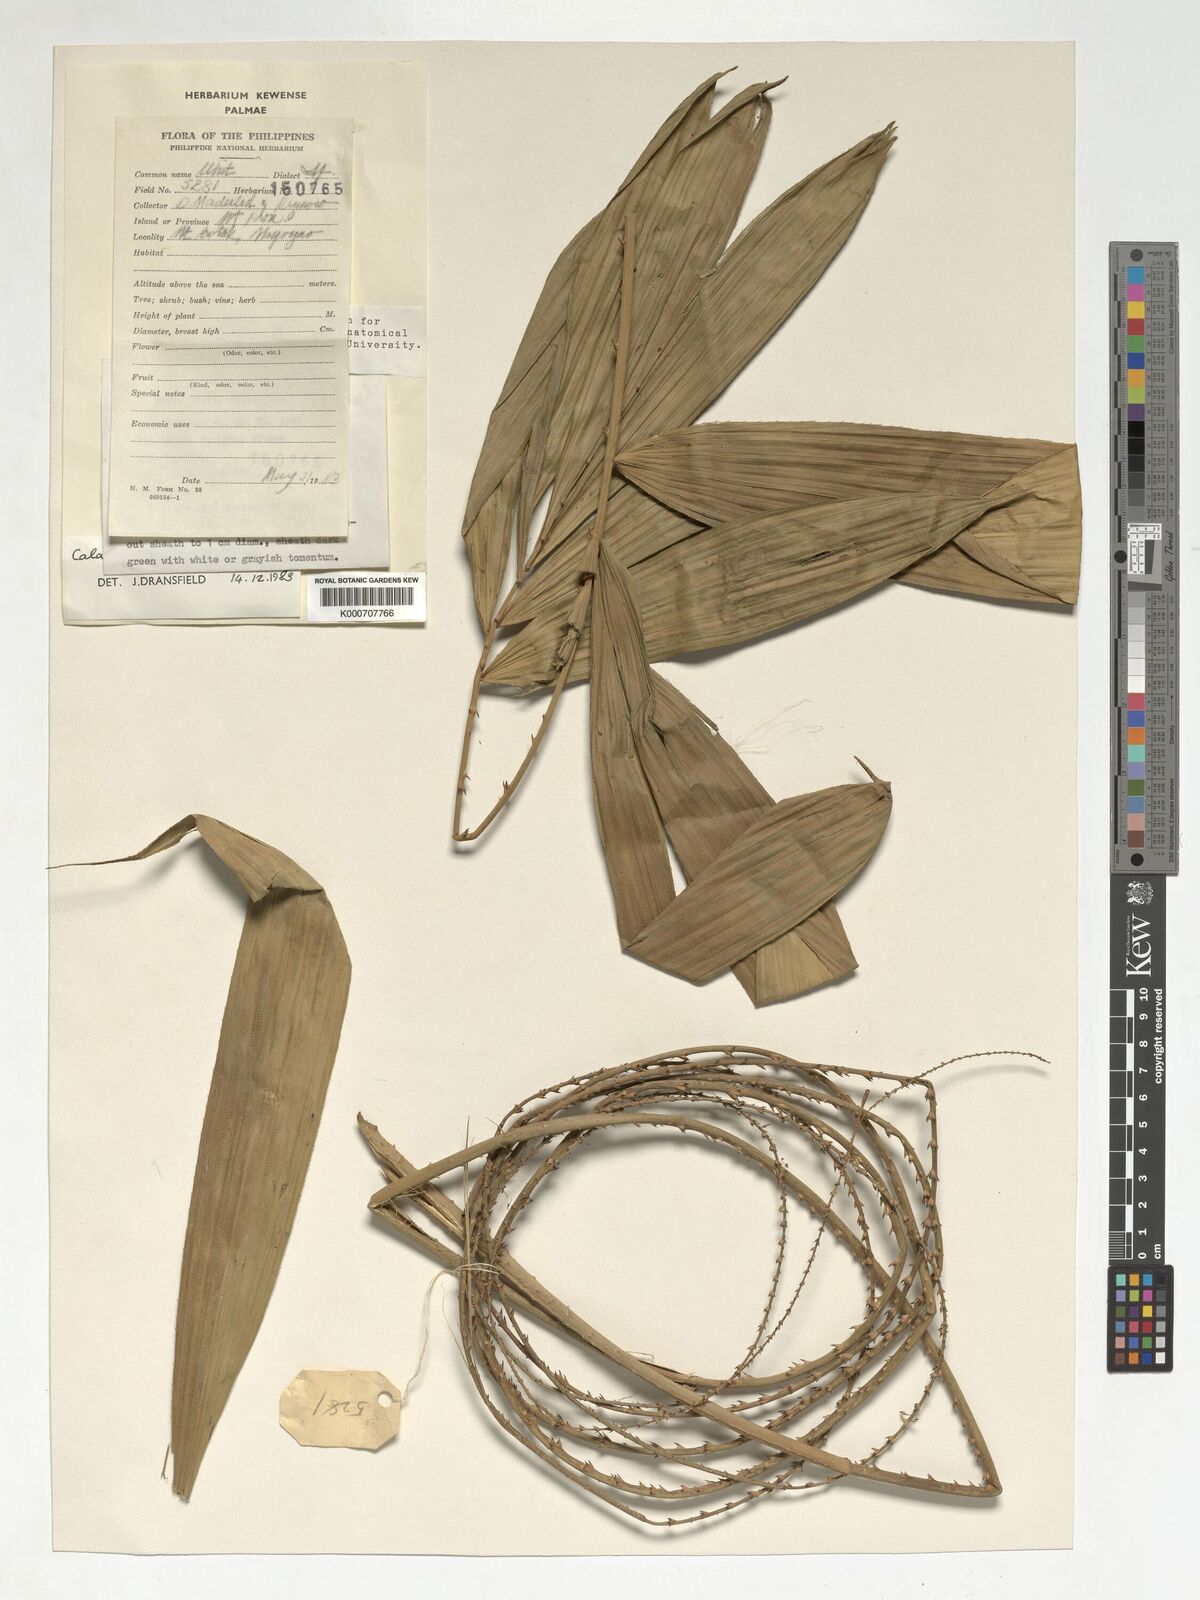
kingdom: Plantae
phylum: Tracheophyta
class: Liliopsida
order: Arecales
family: Arecaceae
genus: Calamus
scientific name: Calamus cumingianus
